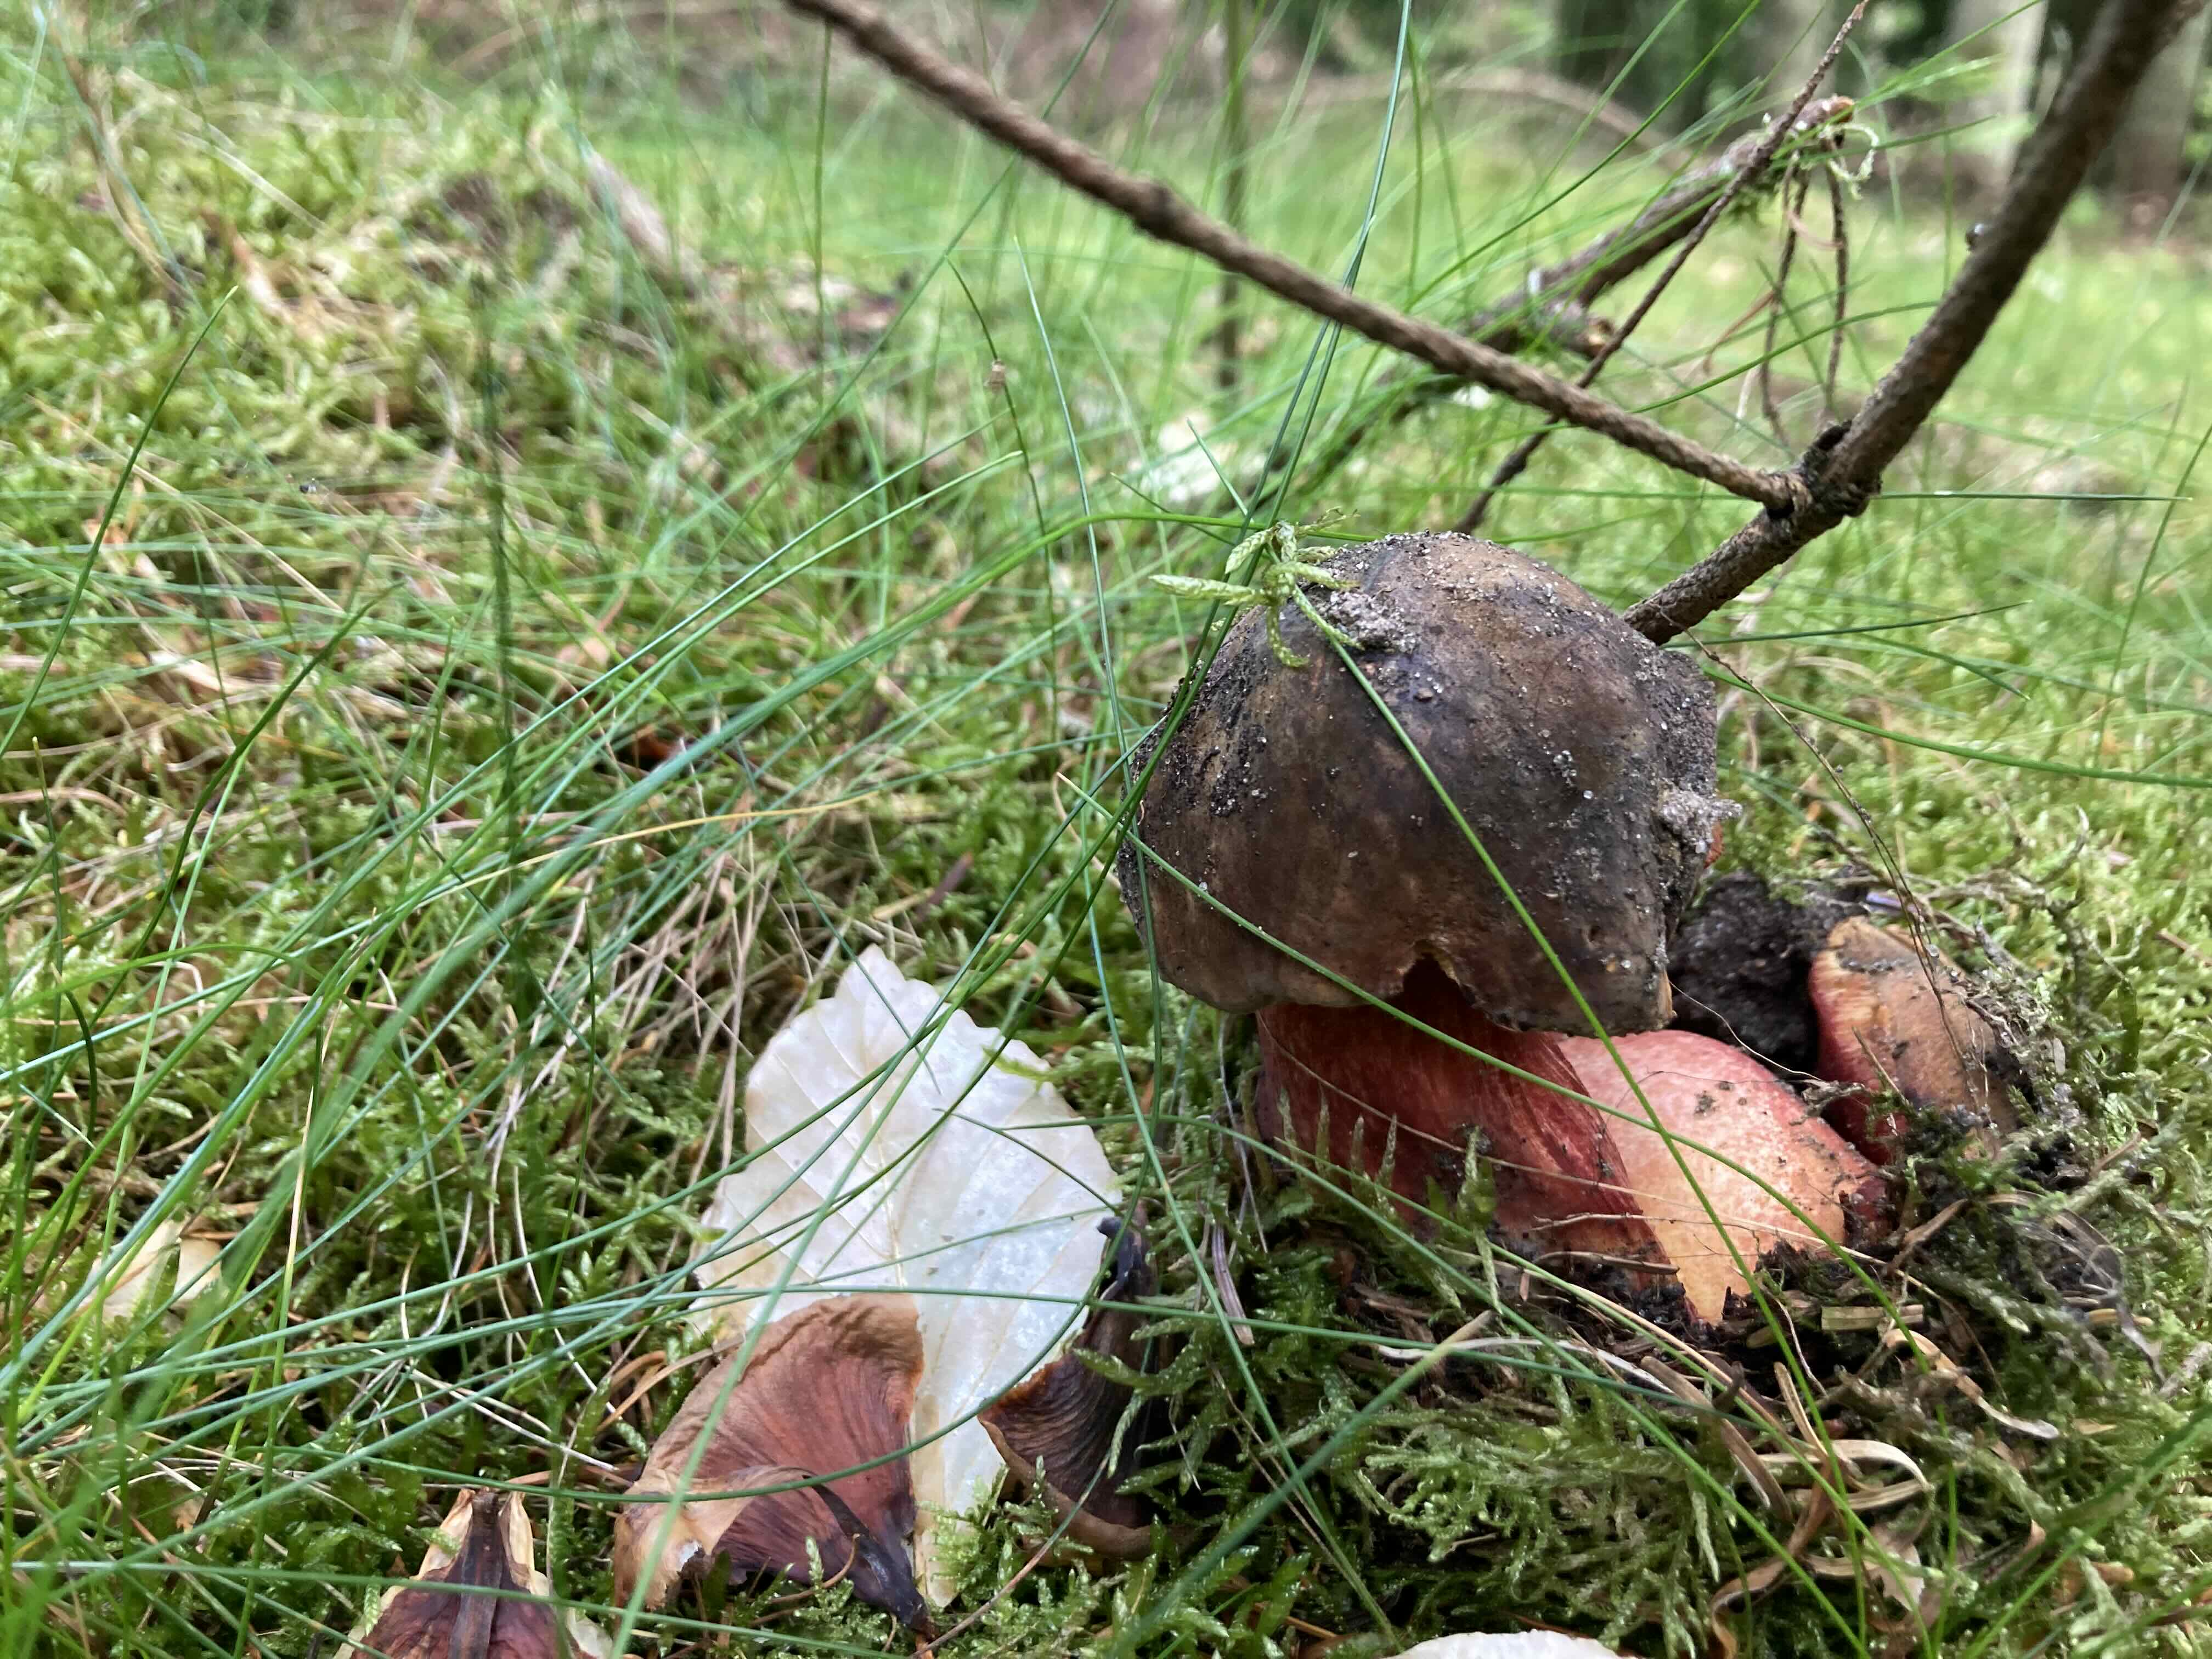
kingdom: Fungi
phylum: Basidiomycota
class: Agaricomycetes
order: Boletales
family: Boletaceae
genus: Neoboletus
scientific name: Neoboletus erythropus
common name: punktstokket indigorørhat
